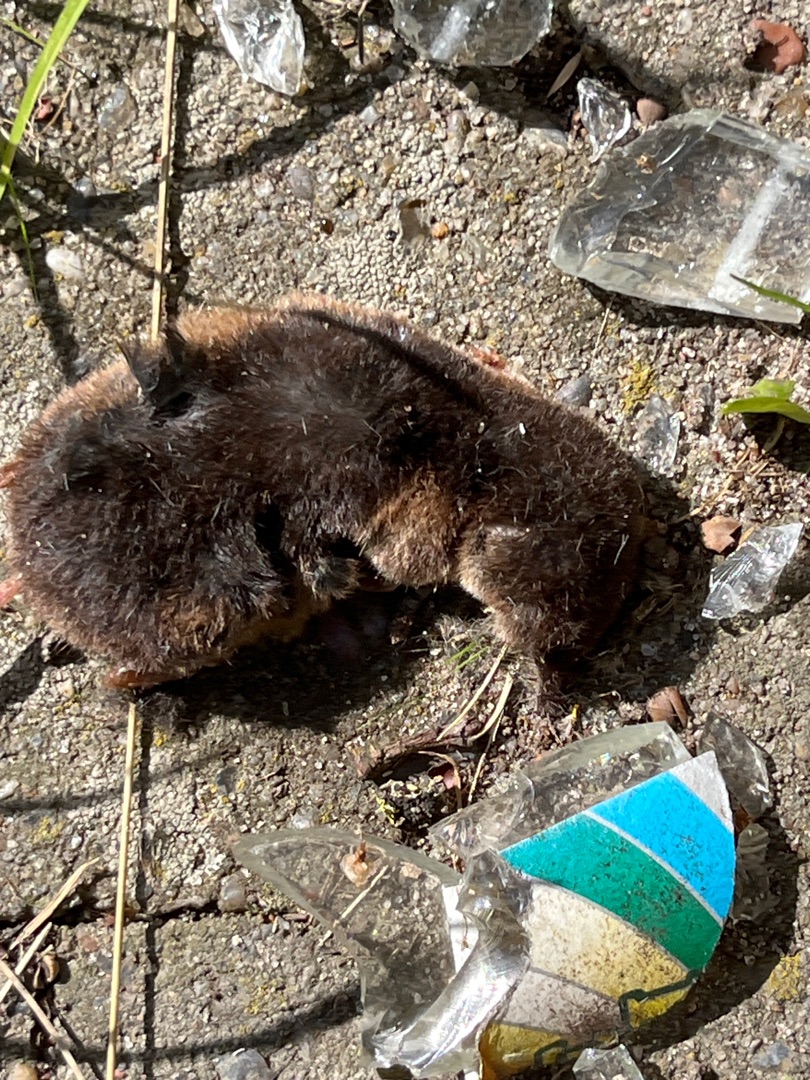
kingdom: Animalia
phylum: Chordata
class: Mammalia
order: Soricomorpha
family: Talpidae
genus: Talpa
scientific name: Talpa europaea
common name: Muldvarp
